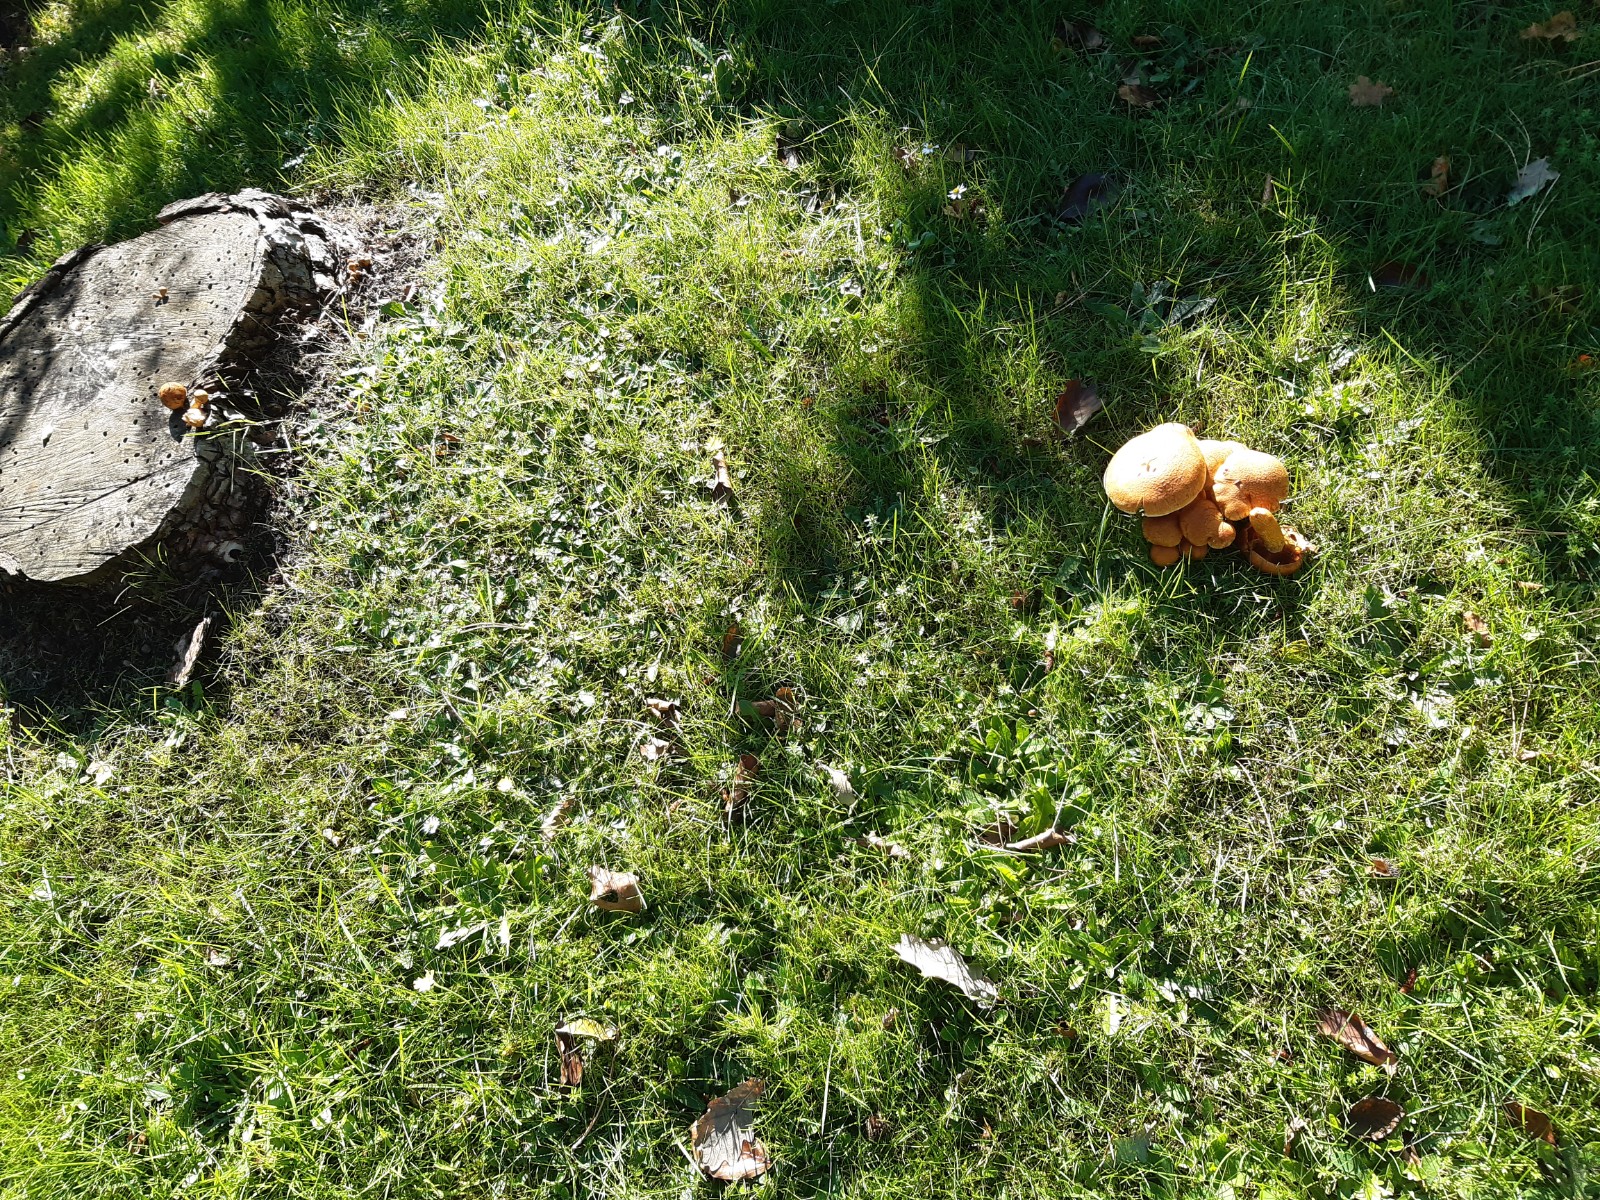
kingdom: Fungi
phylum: Basidiomycota
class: Agaricomycetes
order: Agaricales
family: Hymenogastraceae
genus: Gymnopilus
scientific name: Gymnopilus spectabilis
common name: fibret flammehat
